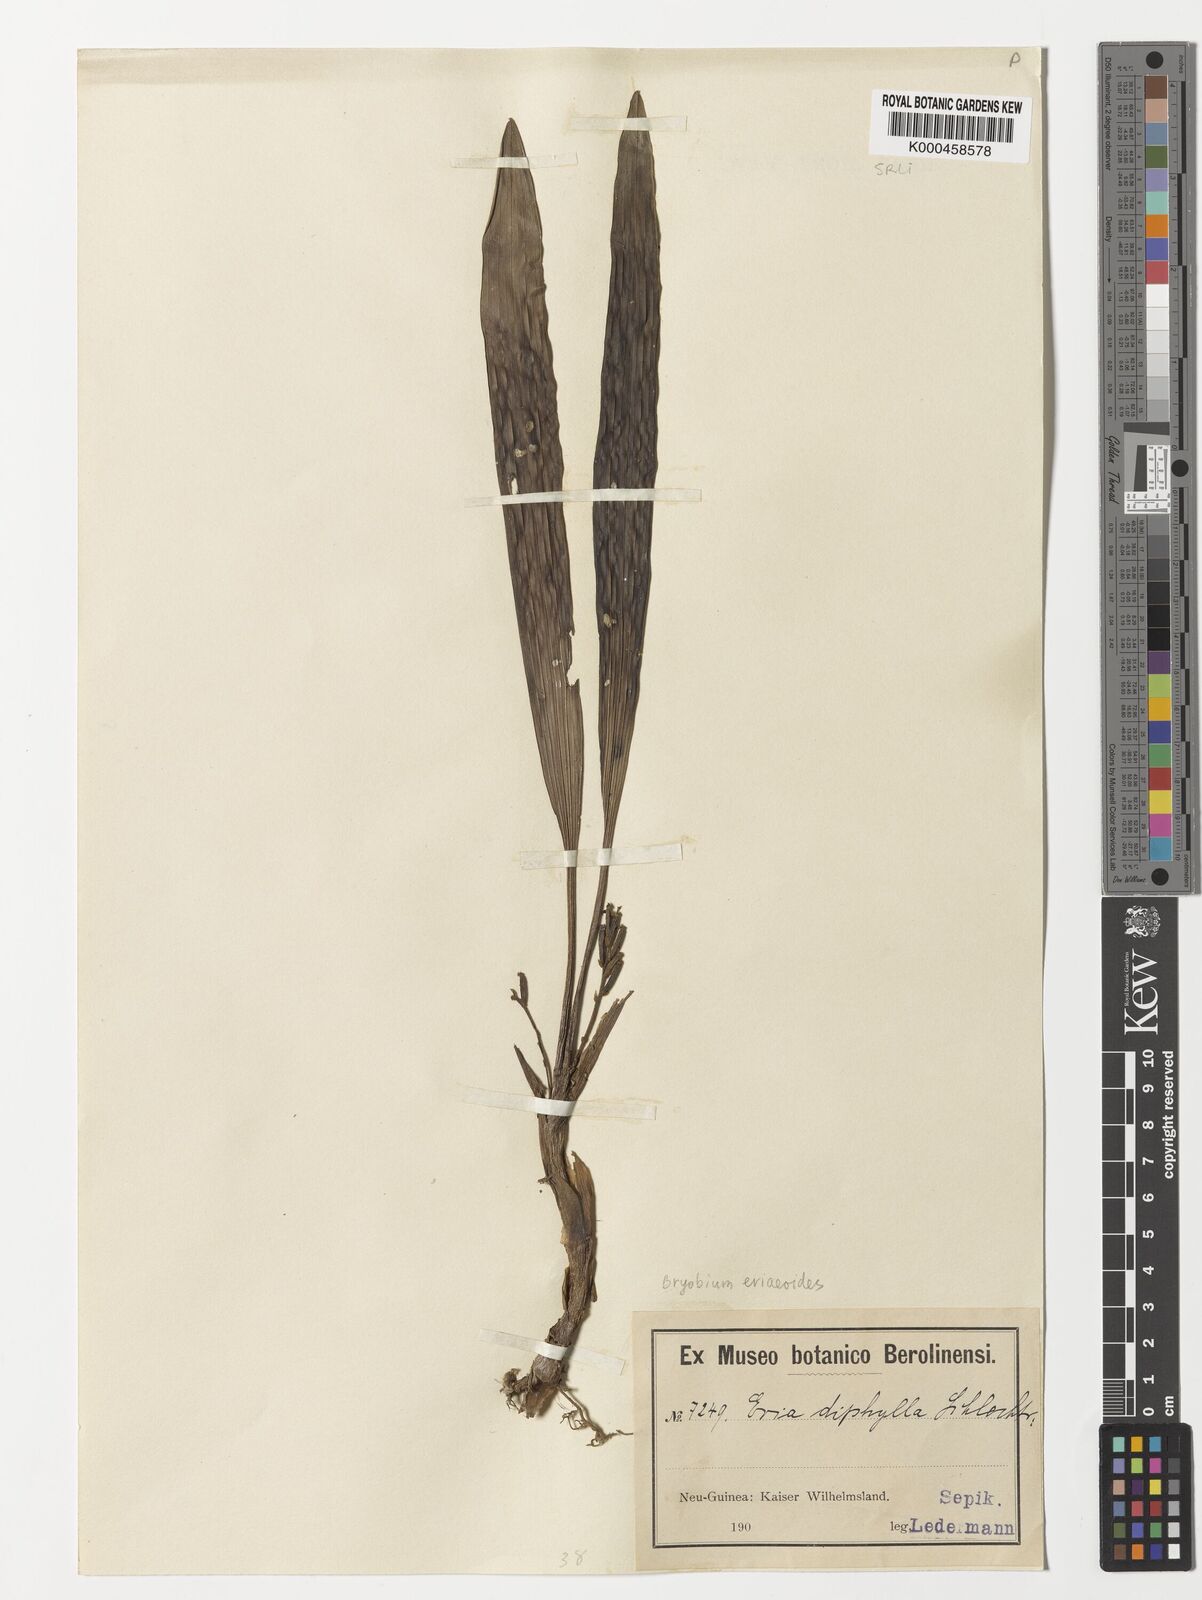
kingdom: Plantae
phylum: Tracheophyta
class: Liliopsida
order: Asparagales
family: Orchidaceae
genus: Bryobium
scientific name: Bryobium eriaeoides
